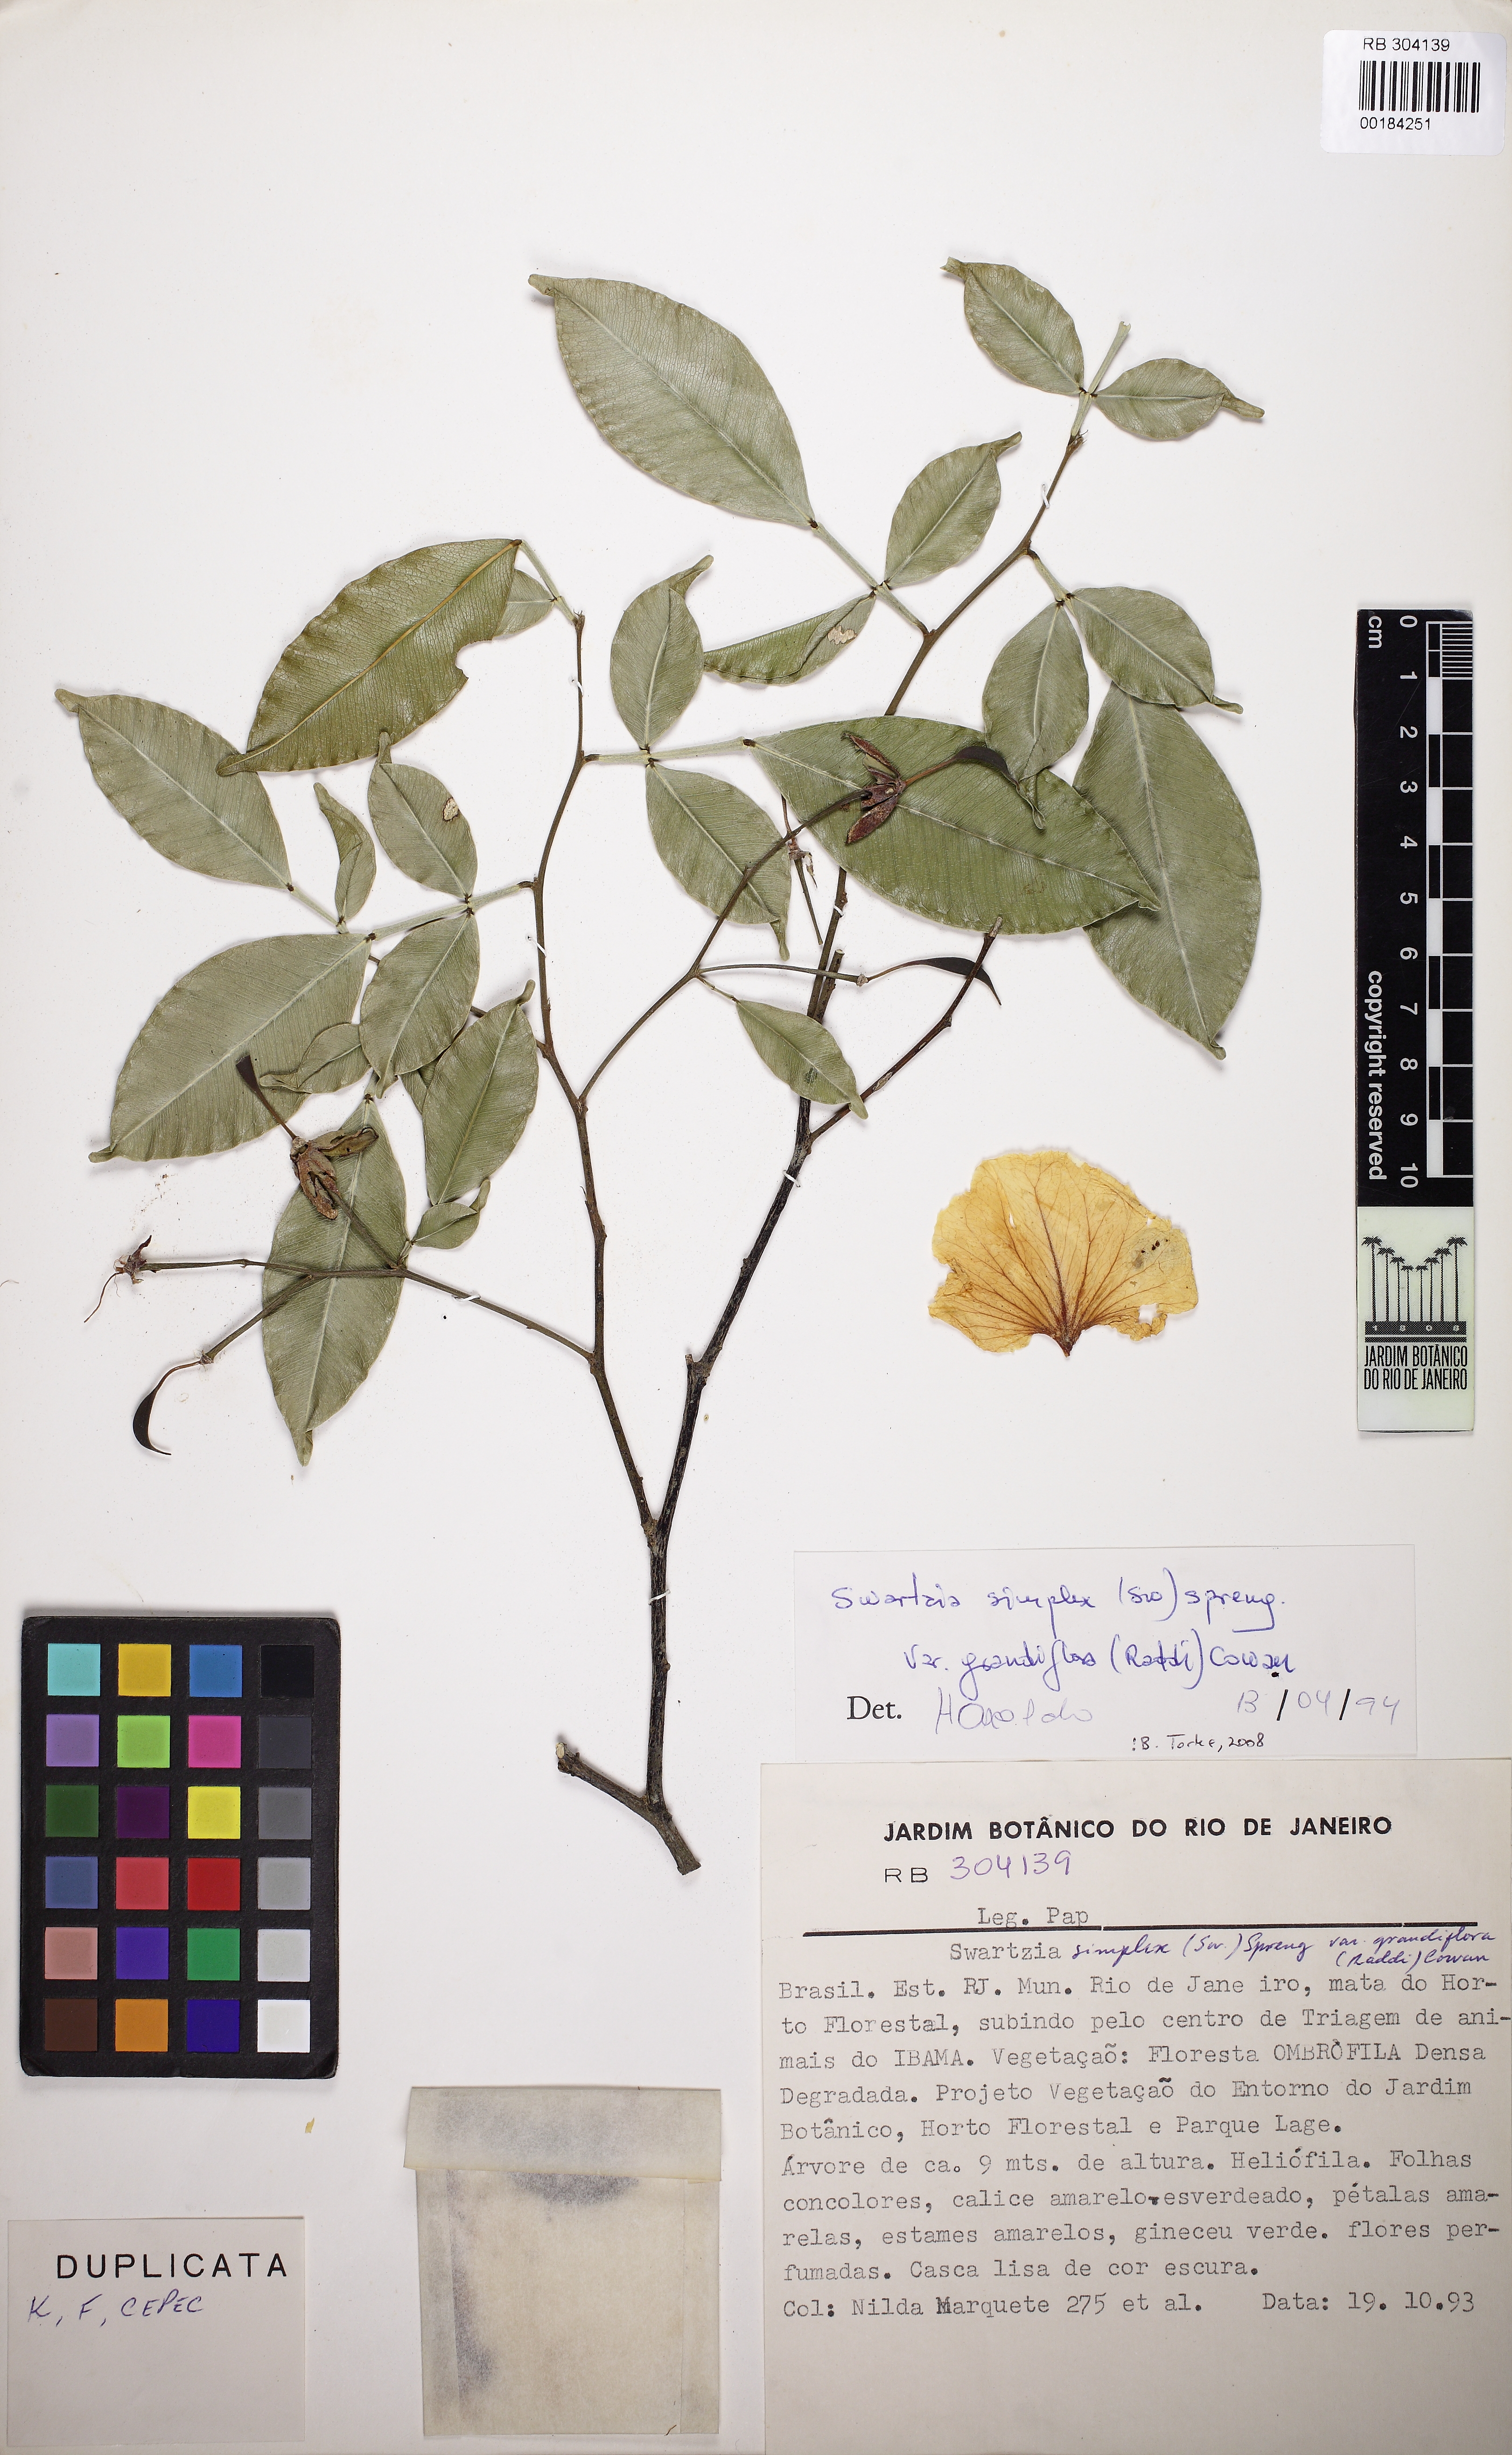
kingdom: Plantae
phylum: Tracheophyta
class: Magnoliopsida
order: Fabales
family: Fabaceae
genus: Swartzia
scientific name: Swartzia simplex
